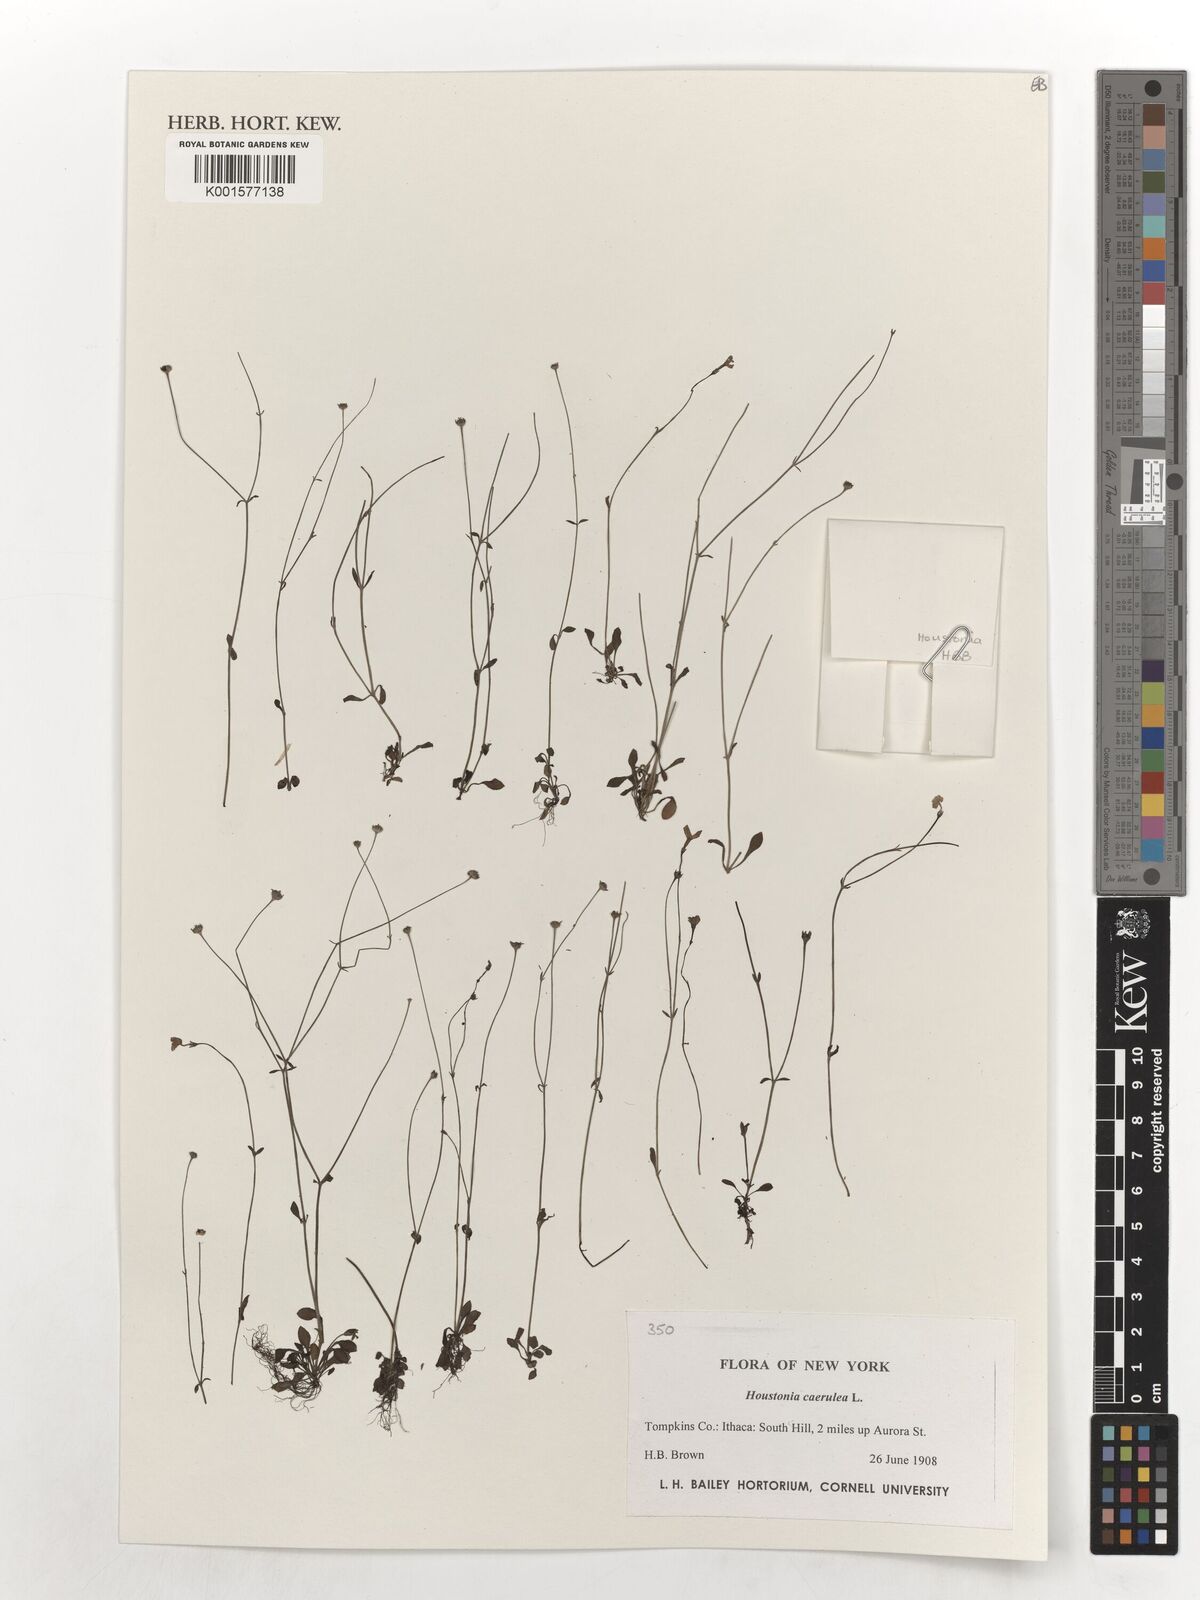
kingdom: Plantae
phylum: Tracheophyta
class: Magnoliopsida
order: Gentianales
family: Rubiaceae
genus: Houstonia
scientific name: Houstonia caerulea
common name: Bluets
